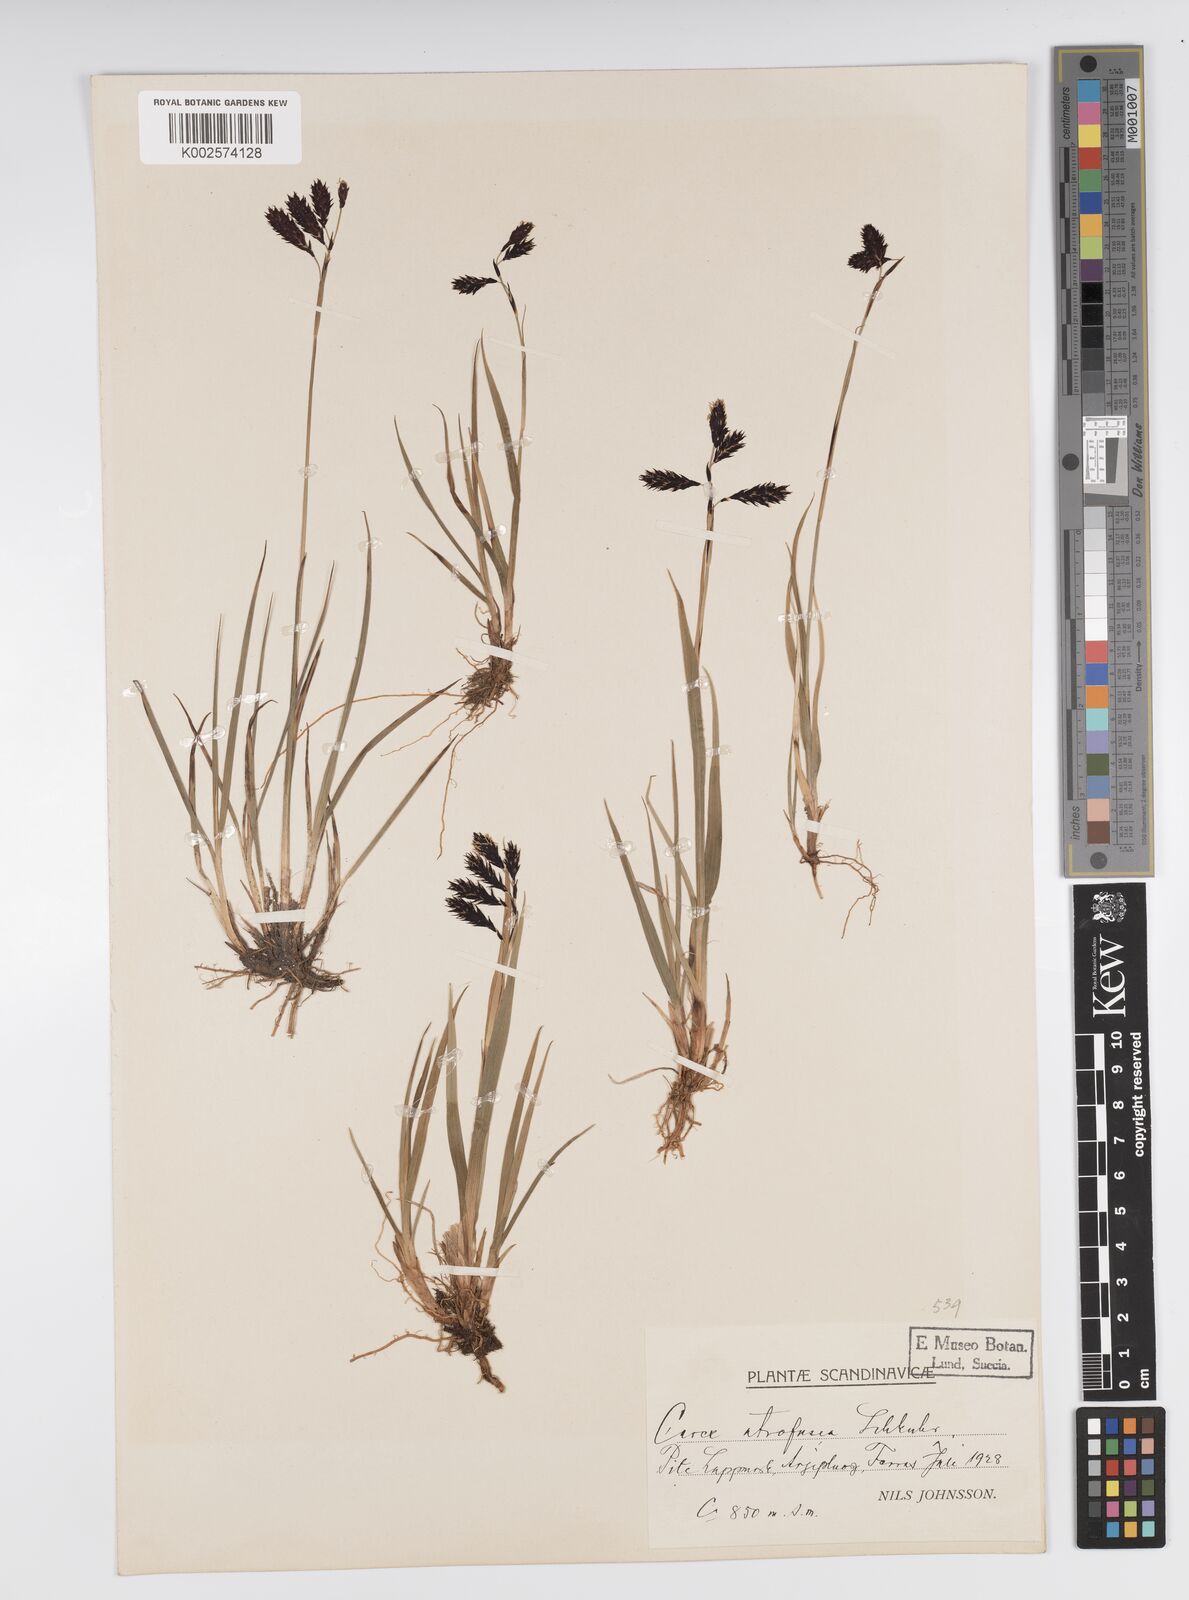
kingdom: Plantae
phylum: Tracheophyta
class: Liliopsida
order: Poales
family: Cyperaceae
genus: Carex
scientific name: Carex atrofusca
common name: Scorched alpine-sedge
